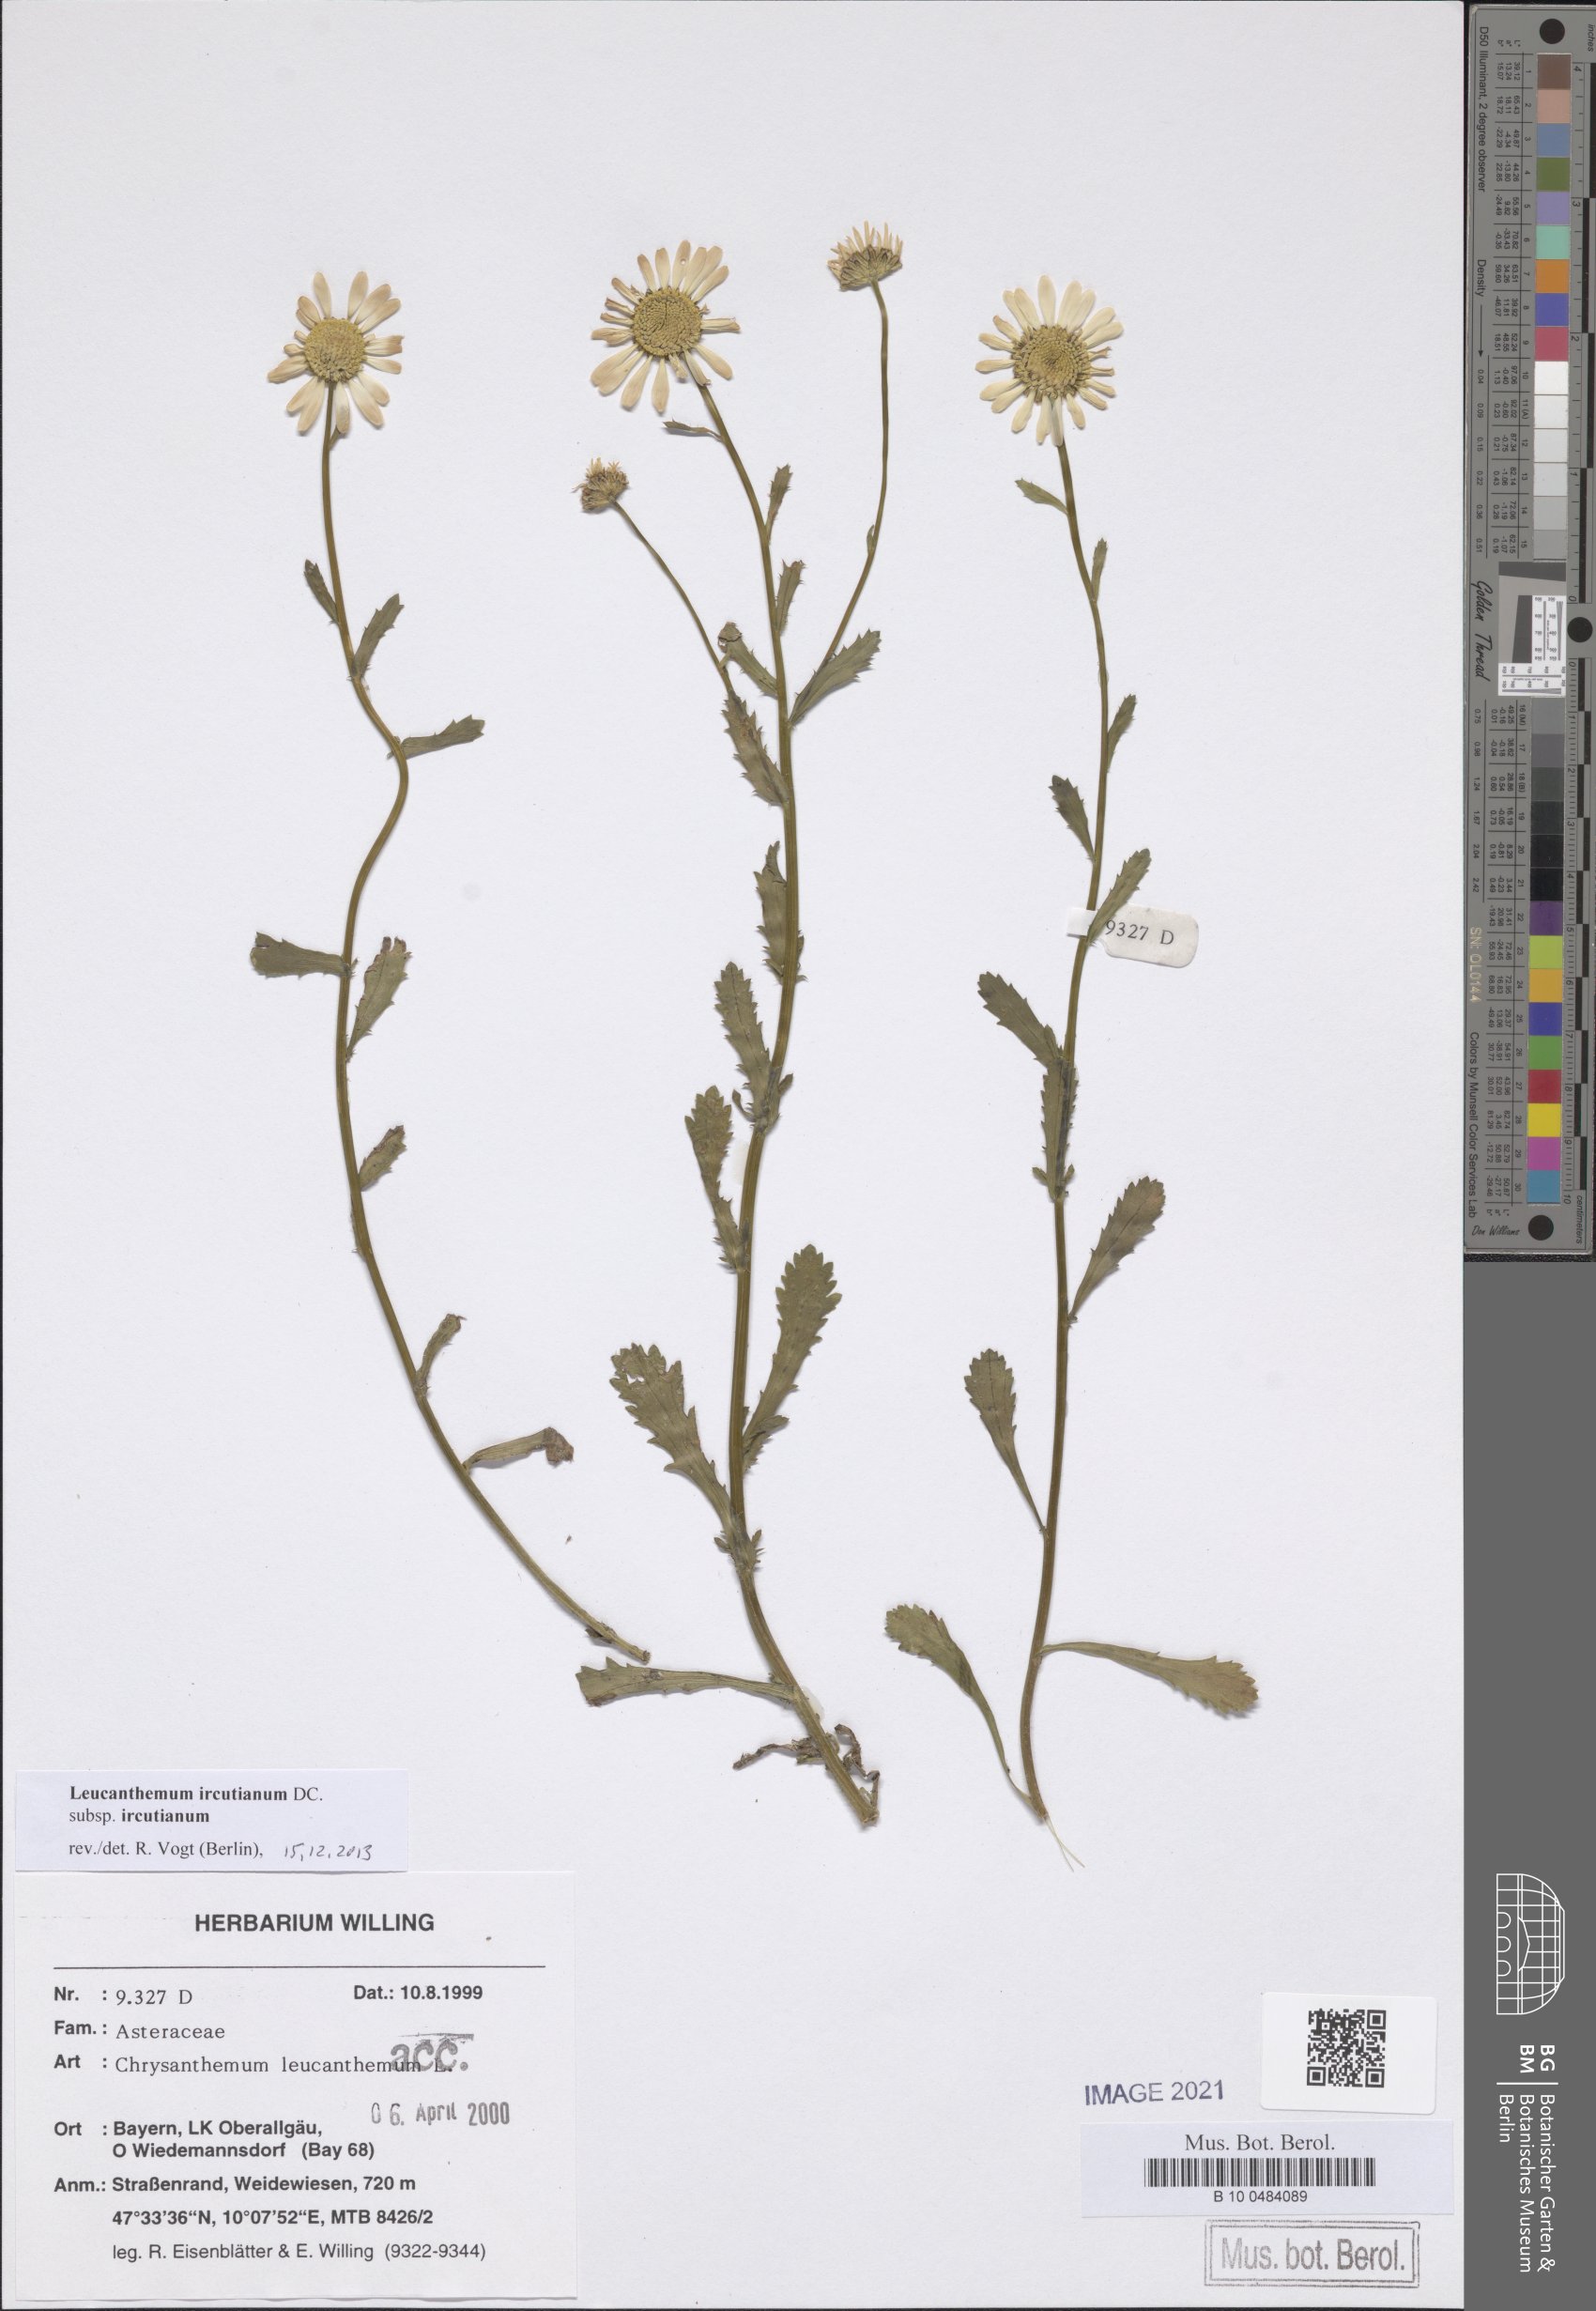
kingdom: Plantae
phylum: Tracheophyta
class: Magnoliopsida
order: Asterales
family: Asteraceae
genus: Leucanthemum
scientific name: Leucanthemum ircutianum
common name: Daisy
